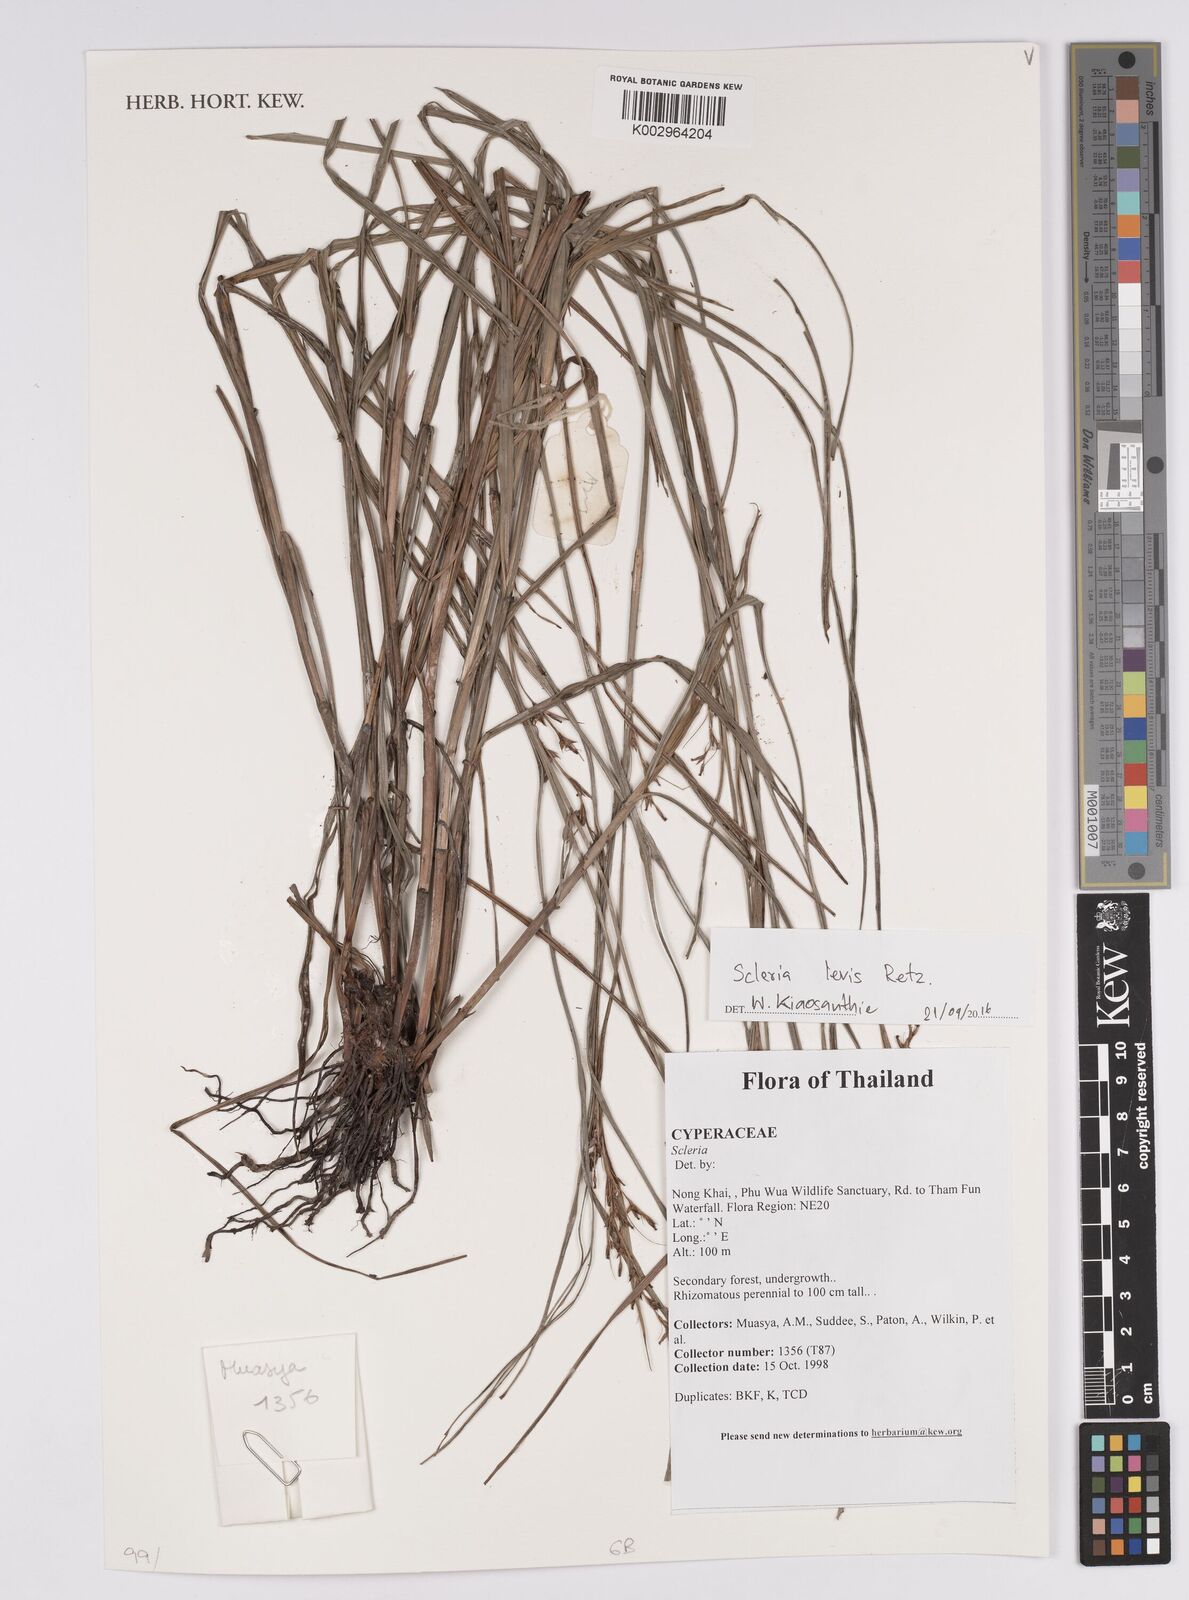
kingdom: Plantae
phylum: Tracheophyta
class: Liliopsida
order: Poales
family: Cyperaceae
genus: Scleria
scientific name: Scleria levis
